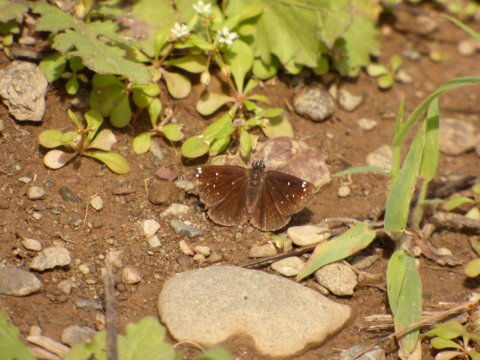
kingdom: Animalia
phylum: Arthropoda
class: Insecta
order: Lepidoptera
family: Hesperiidae
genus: Pholisora
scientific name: Pholisora catullus
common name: Common Sootywing
